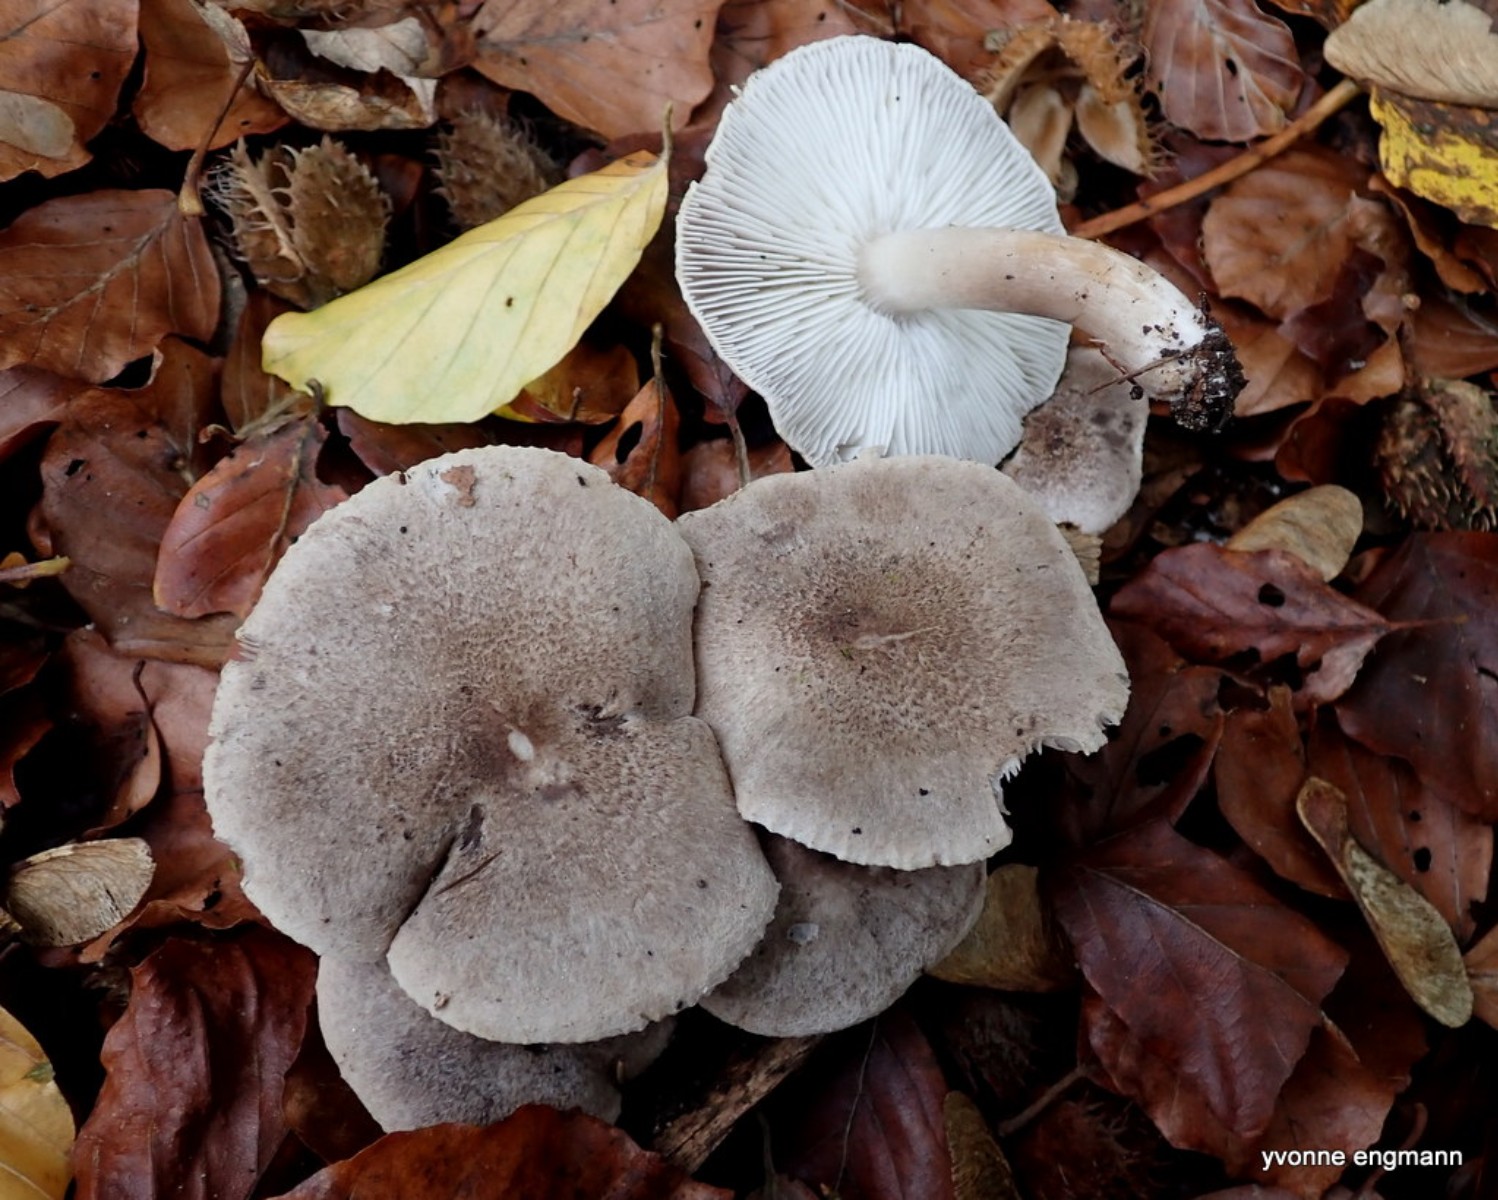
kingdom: Fungi
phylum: Basidiomycota
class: Agaricomycetes
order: Agaricales
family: Tricholomataceae
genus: Tricholoma
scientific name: Tricholoma scalpturatum
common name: gulplettet ridderhat
